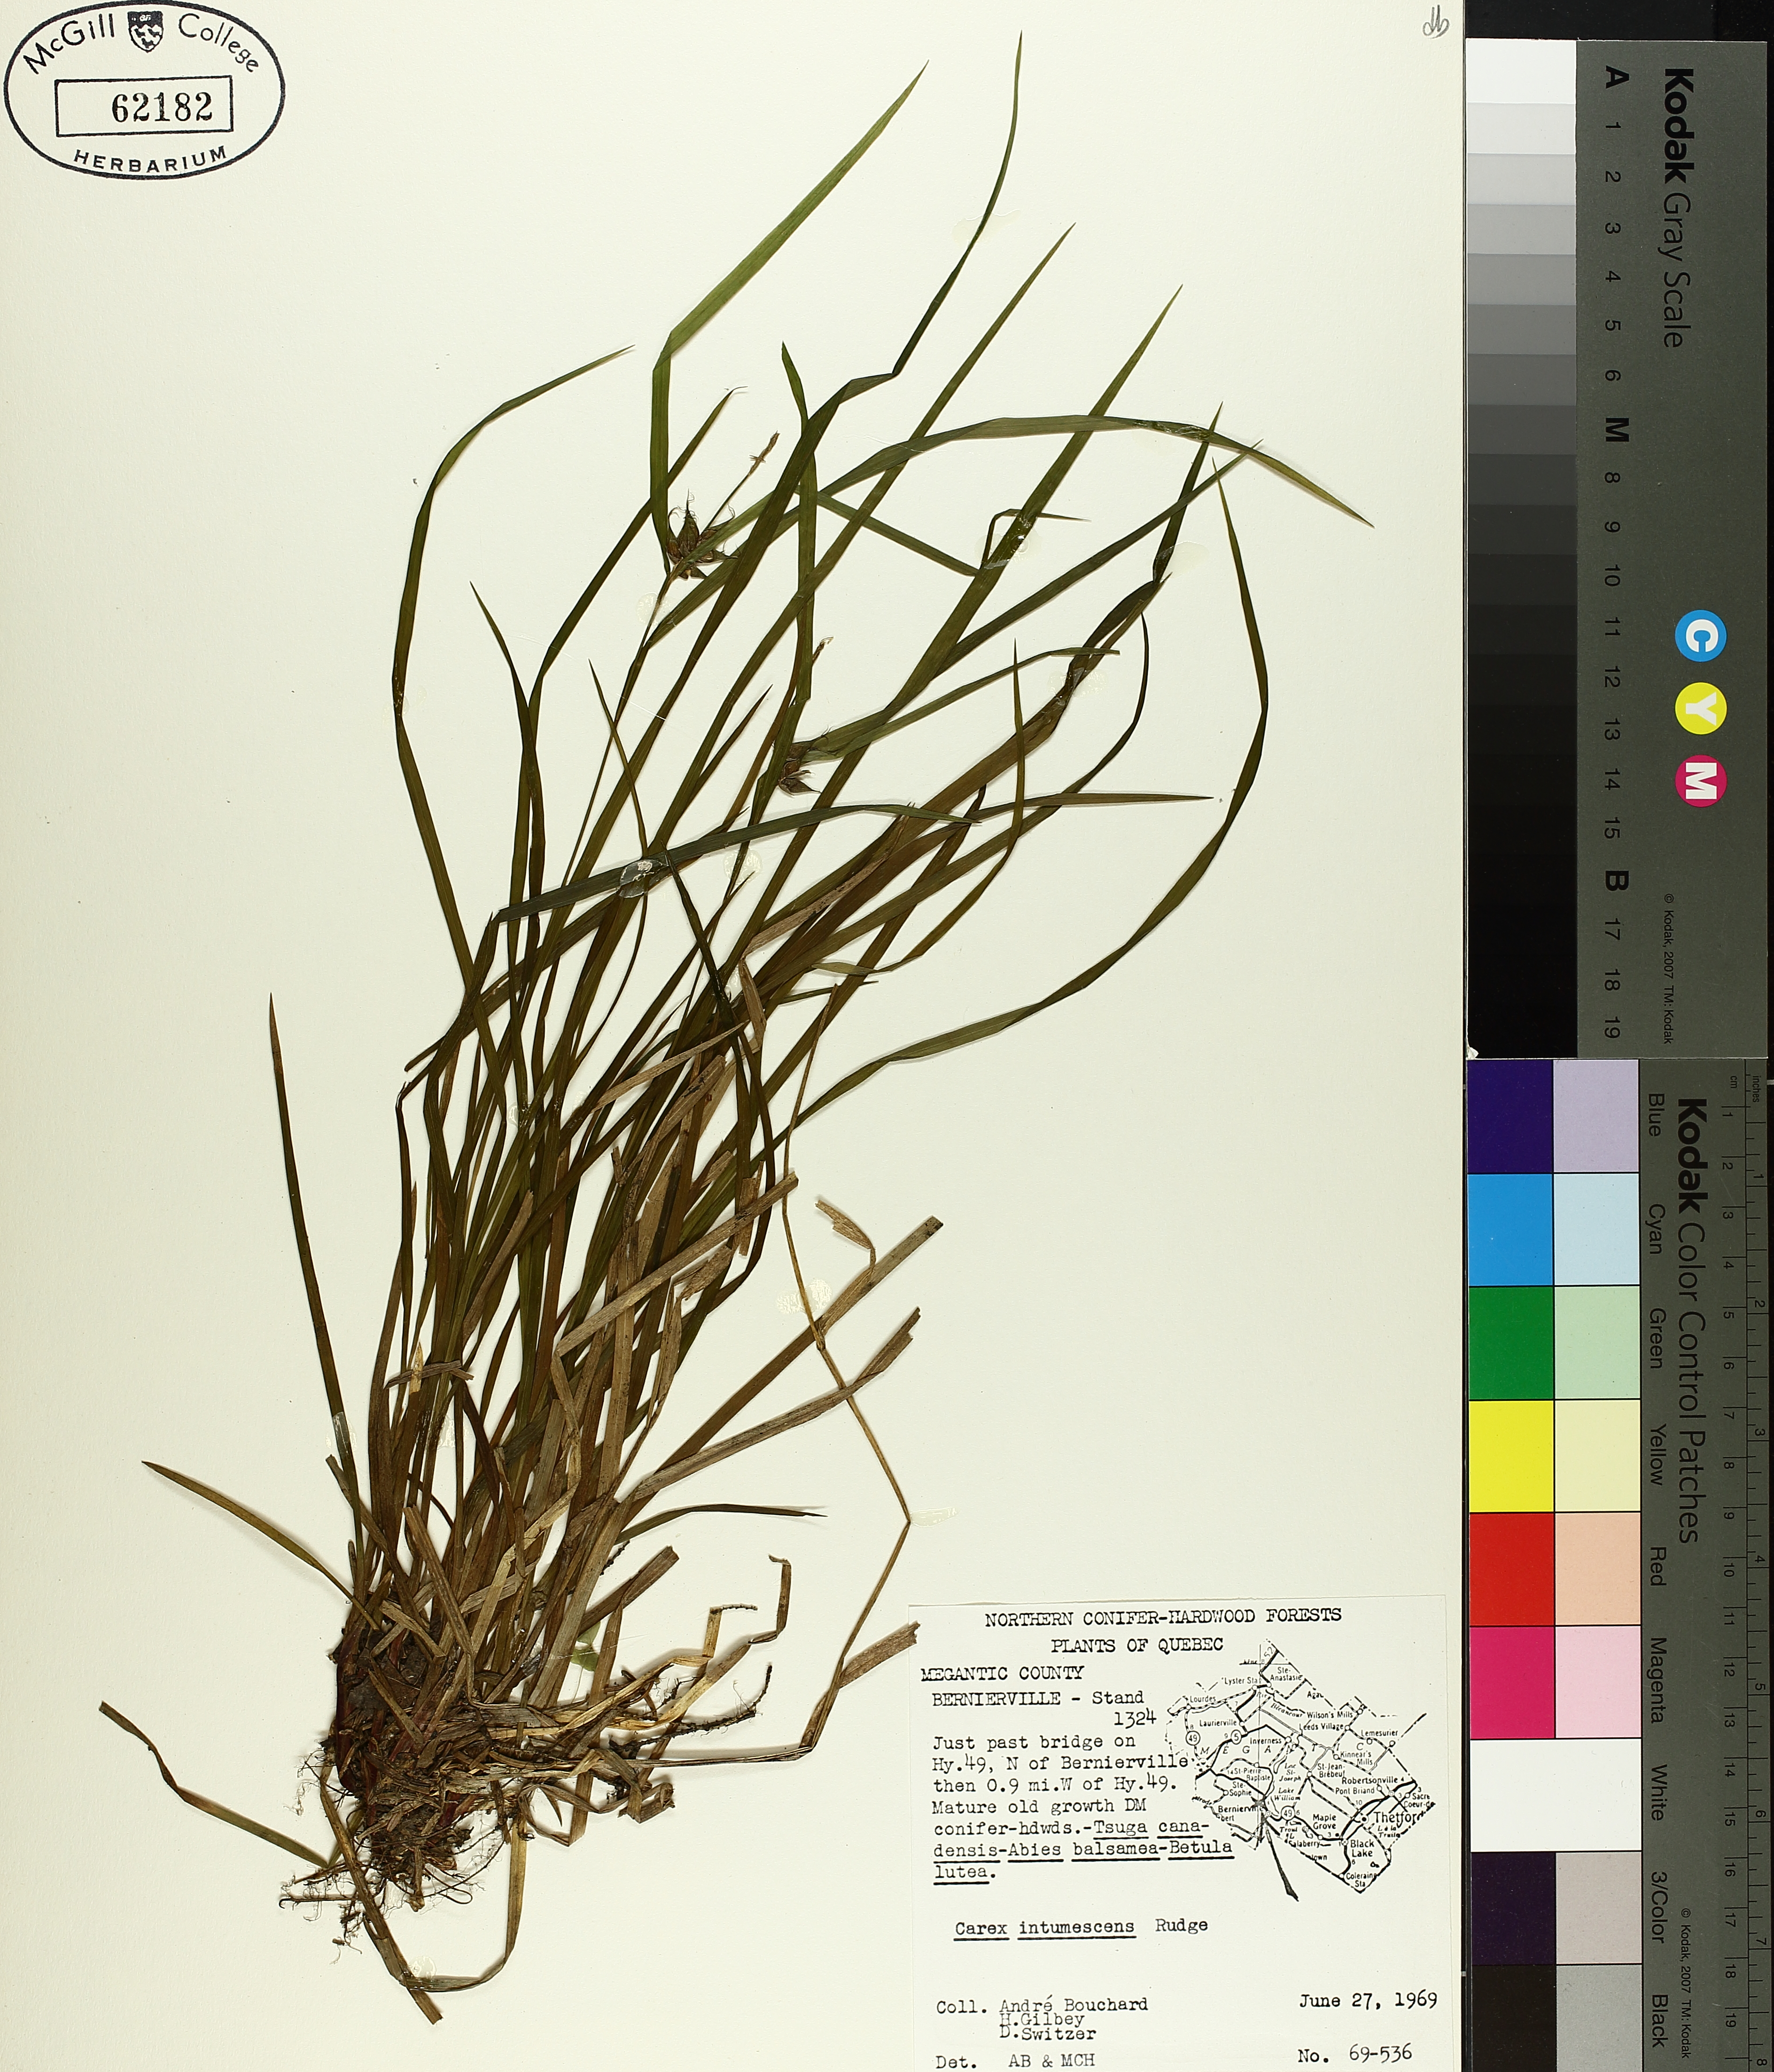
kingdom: Plantae
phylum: Tracheophyta
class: Liliopsida
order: Poales
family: Cyperaceae
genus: Carex
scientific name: Carex intumescens
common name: Greater bladder sedge
